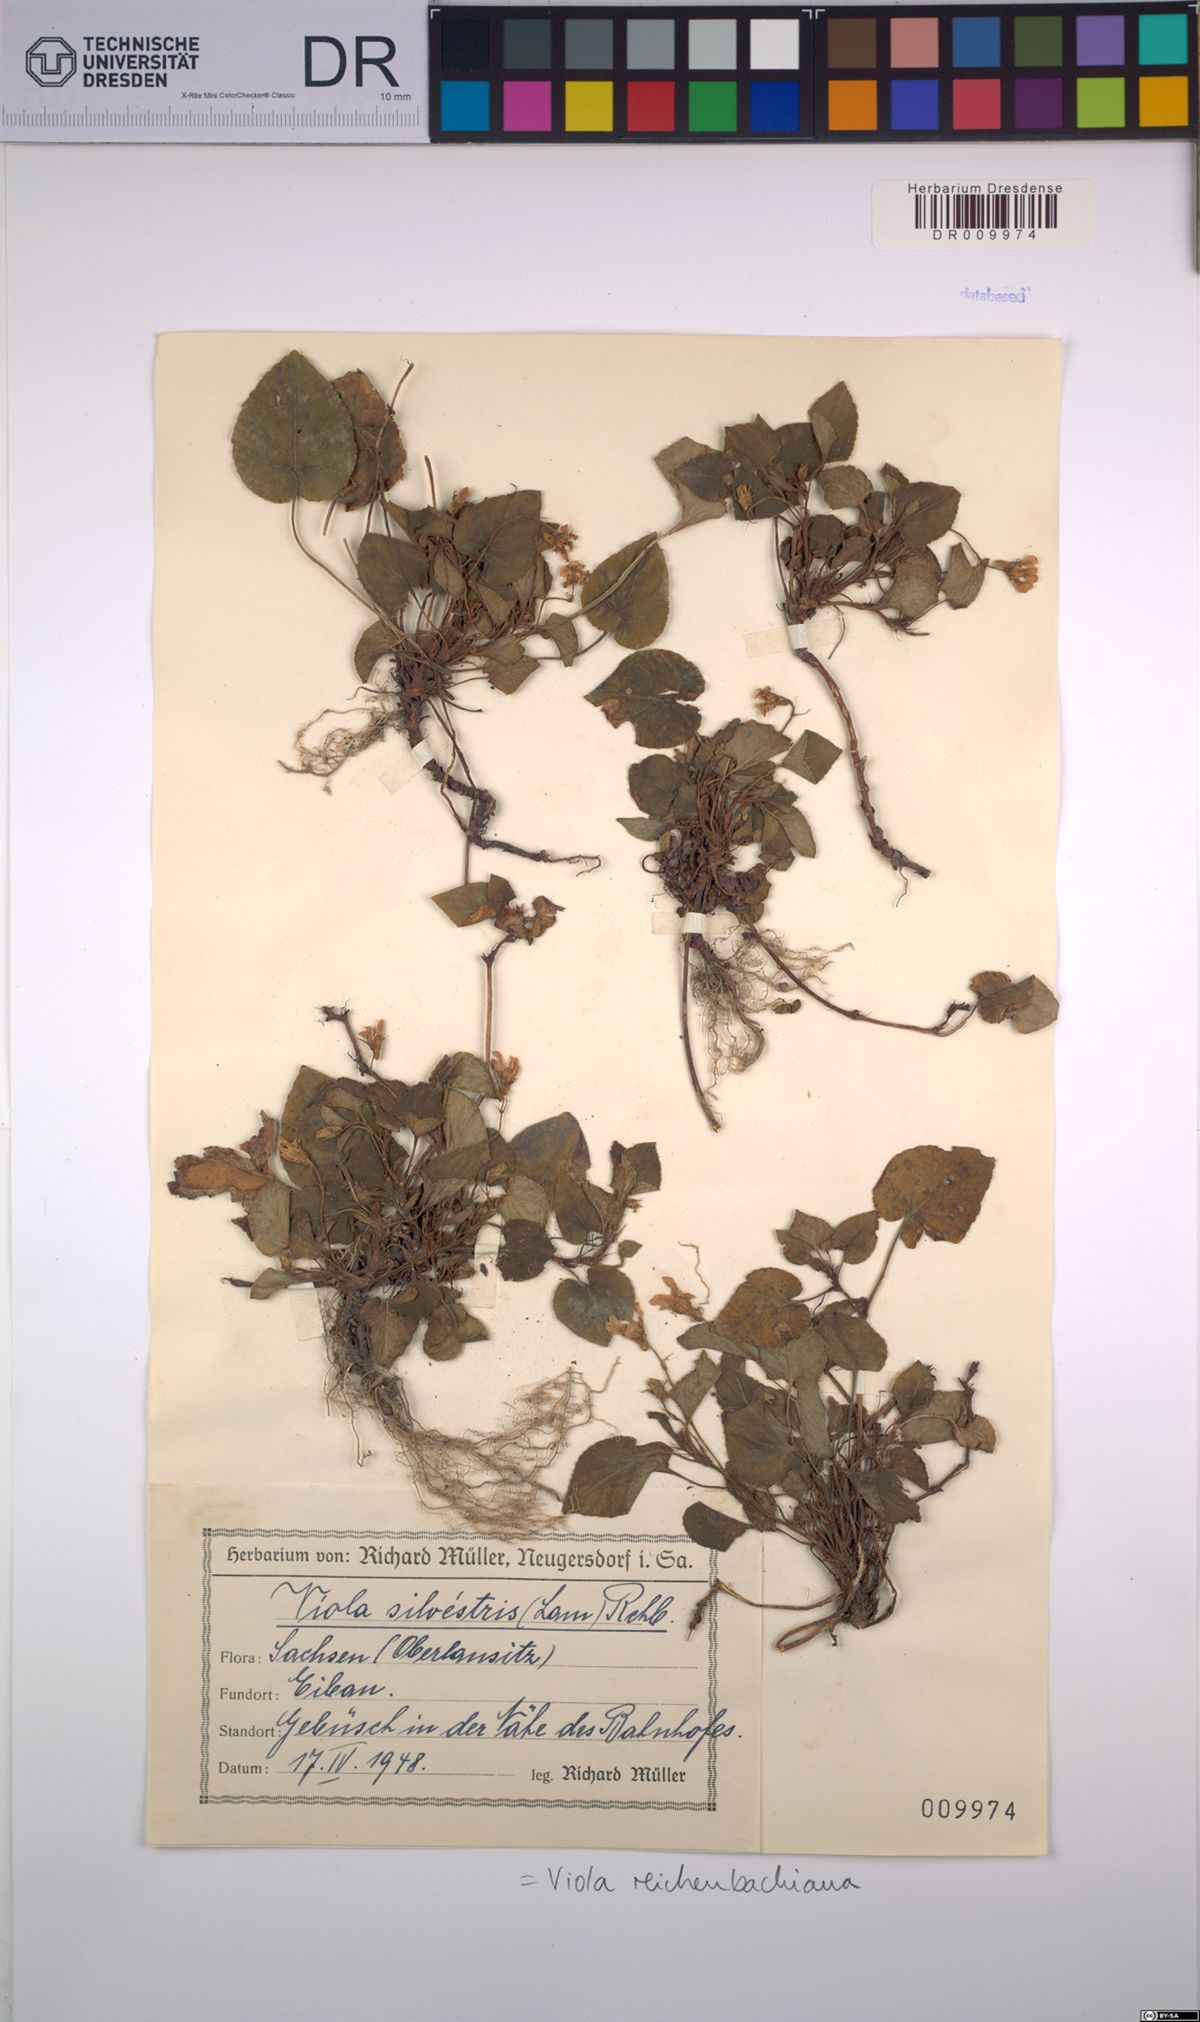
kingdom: Plantae
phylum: Tracheophyta
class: Magnoliopsida
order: Malpighiales
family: Violaceae
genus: Viola
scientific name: Viola reichenbachiana
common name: Early dog-violet
